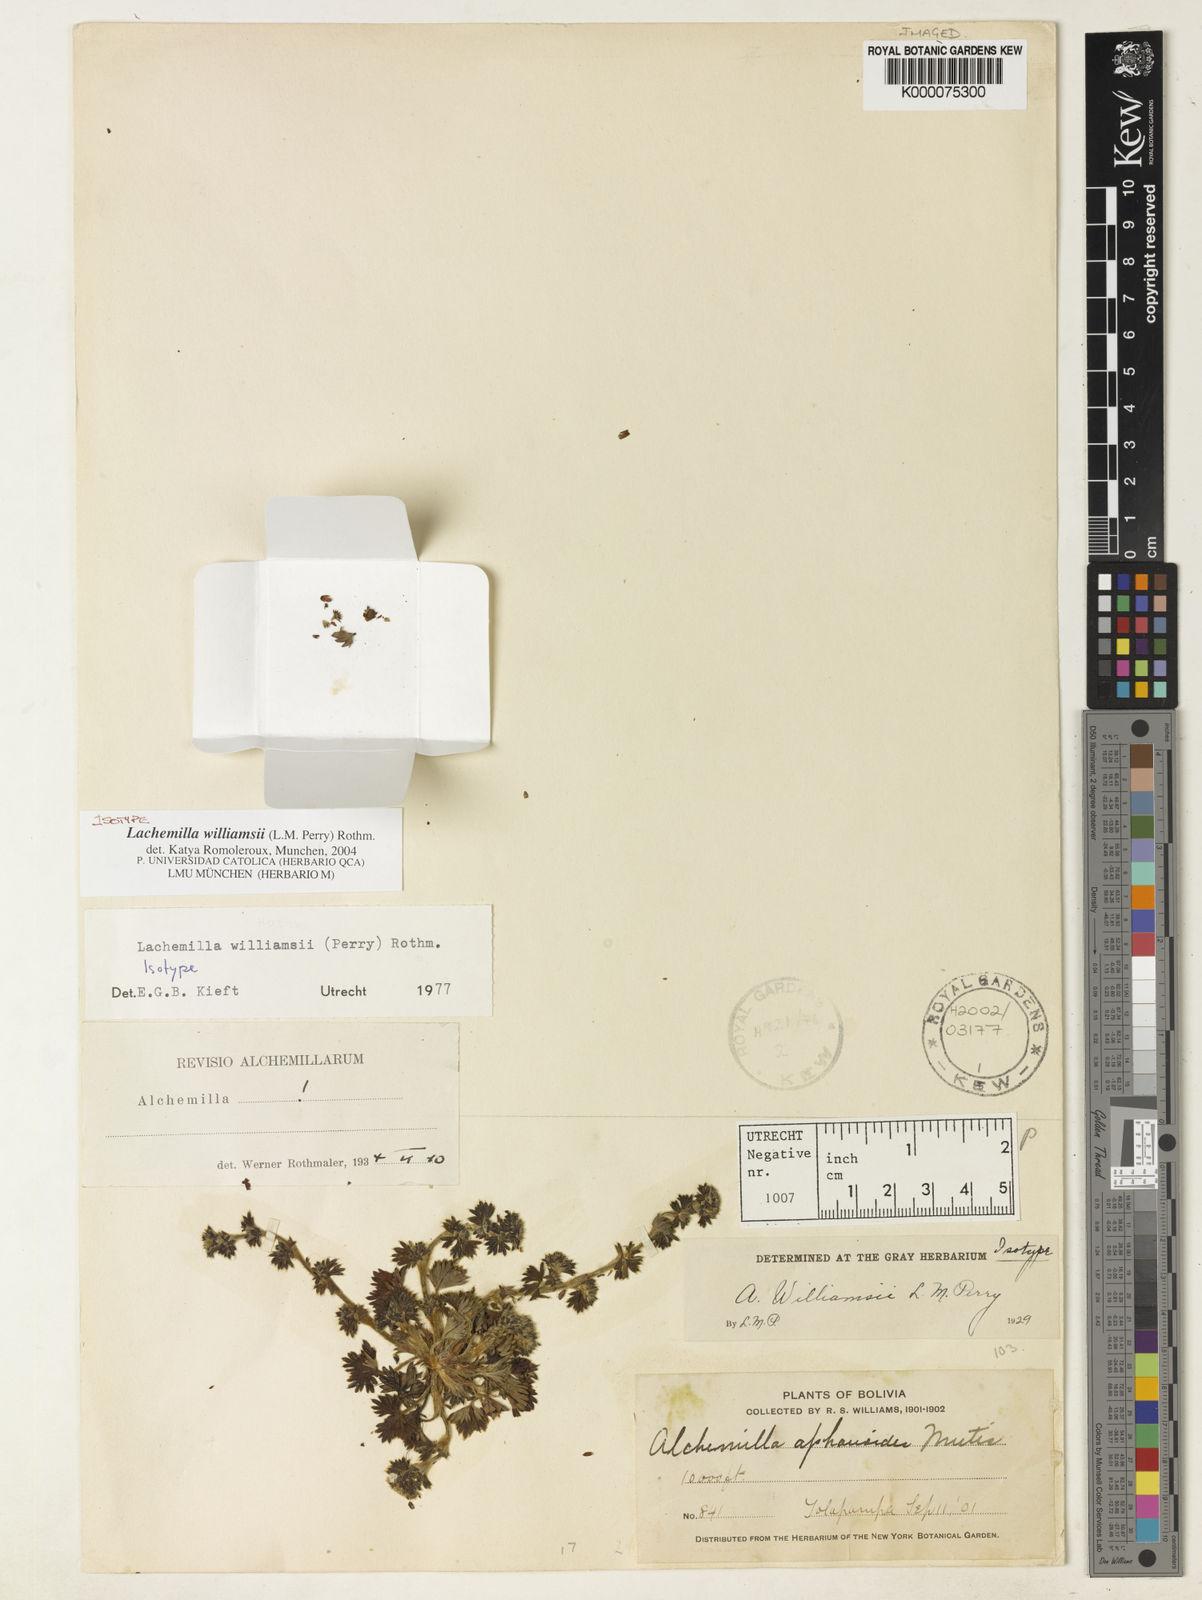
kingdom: Plantae
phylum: Tracheophyta
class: Magnoliopsida
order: Rosales
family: Rosaceae
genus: Lachemilla
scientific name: Lachemilla williamsii
